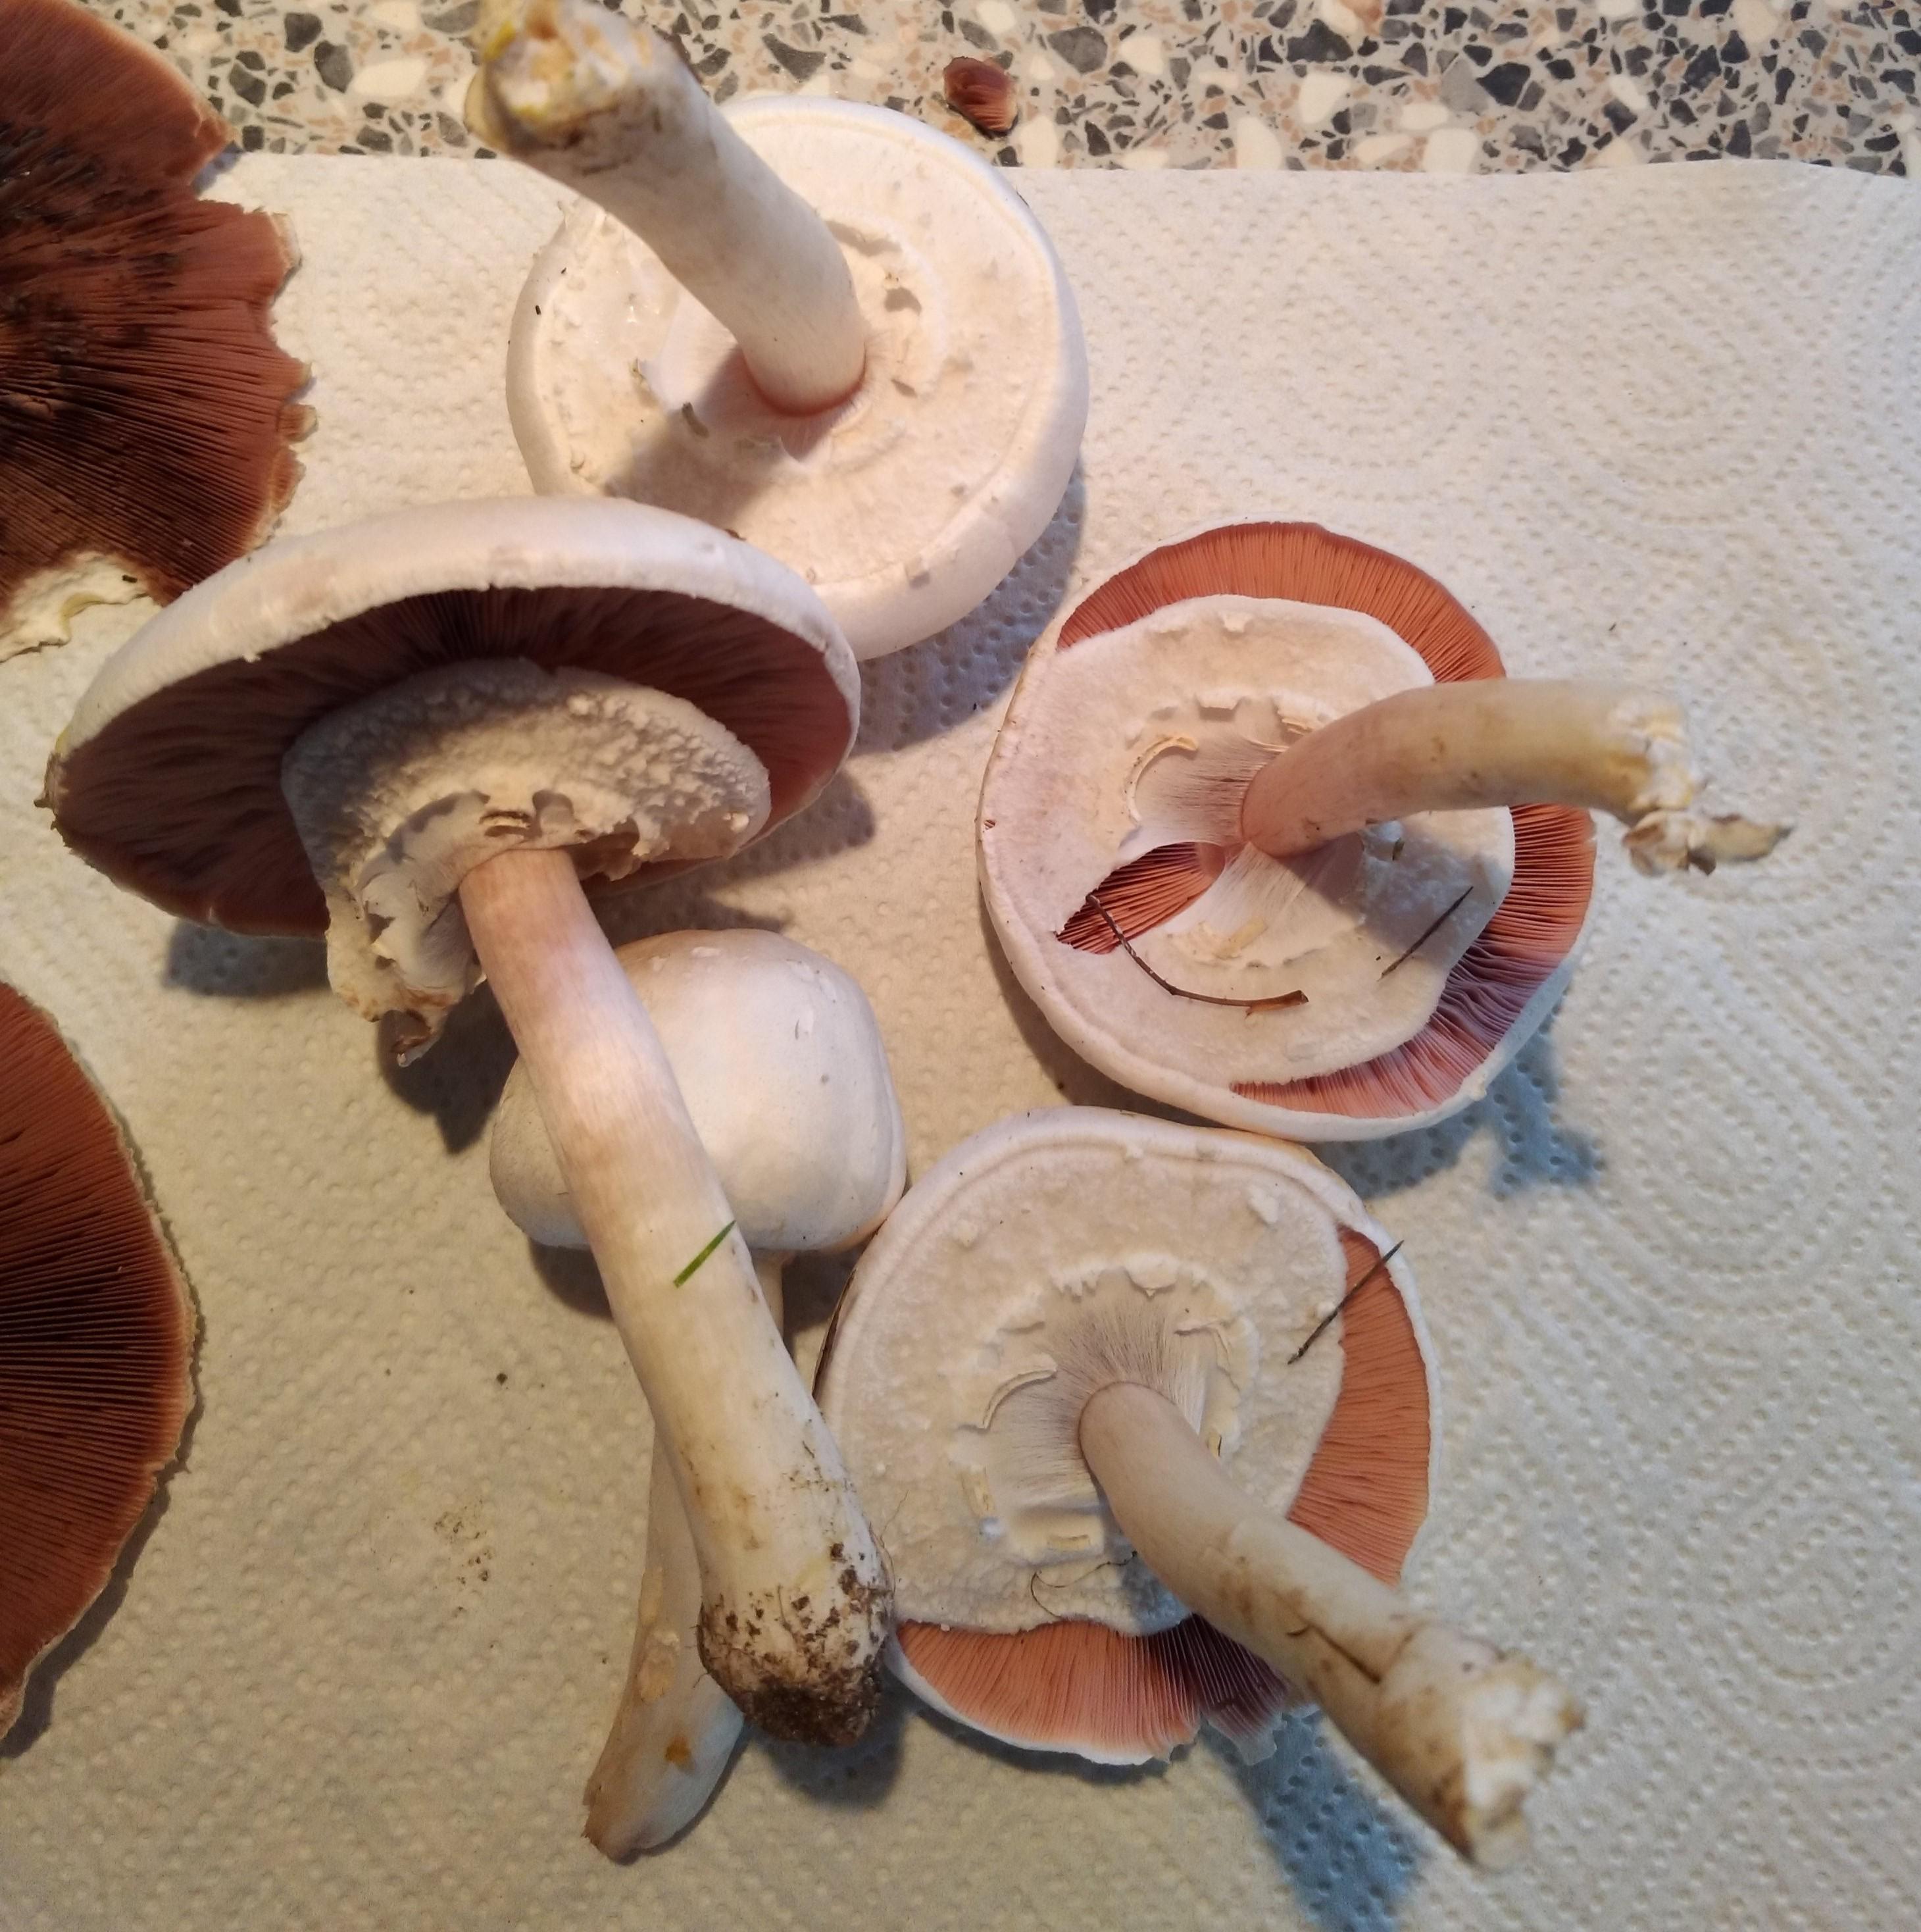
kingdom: Fungi
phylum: Basidiomycota
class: Agaricomycetes
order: Agaricales
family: Agaricaceae
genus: Agaricus
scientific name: Agaricus
